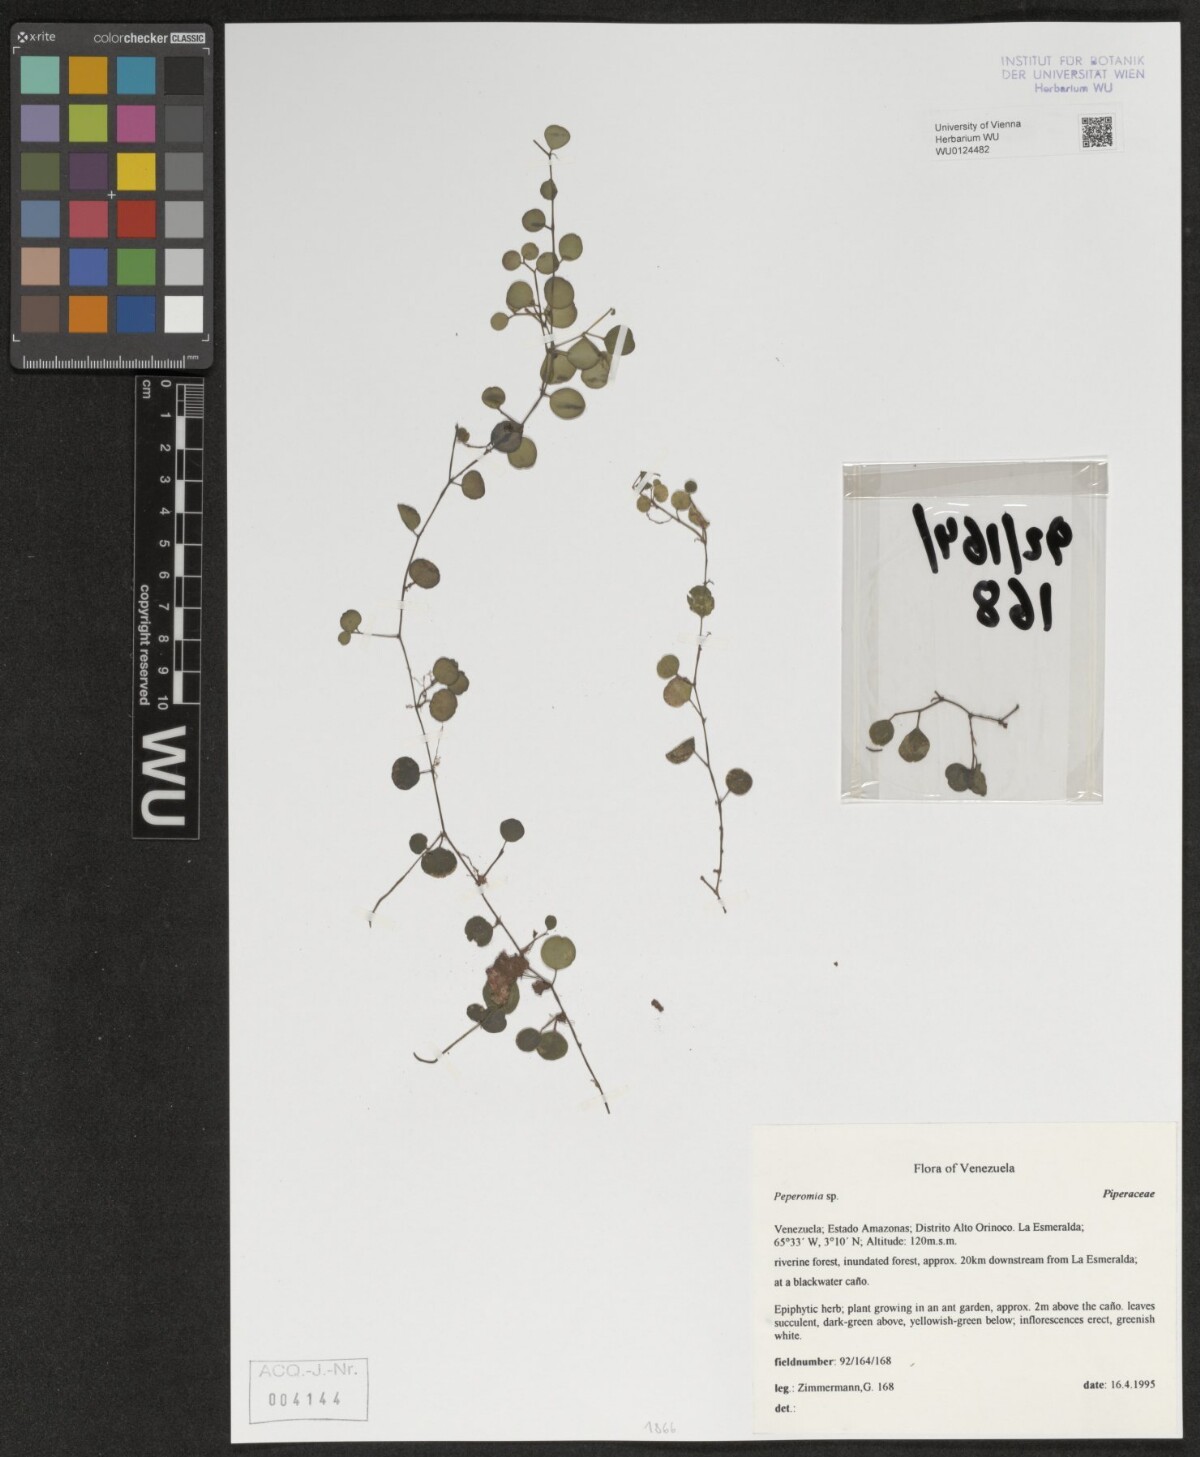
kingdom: Plantae
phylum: Tracheophyta
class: Magnoliopsida
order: Piperales
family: Piperaceae
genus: Peperomia
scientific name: Peperomia
